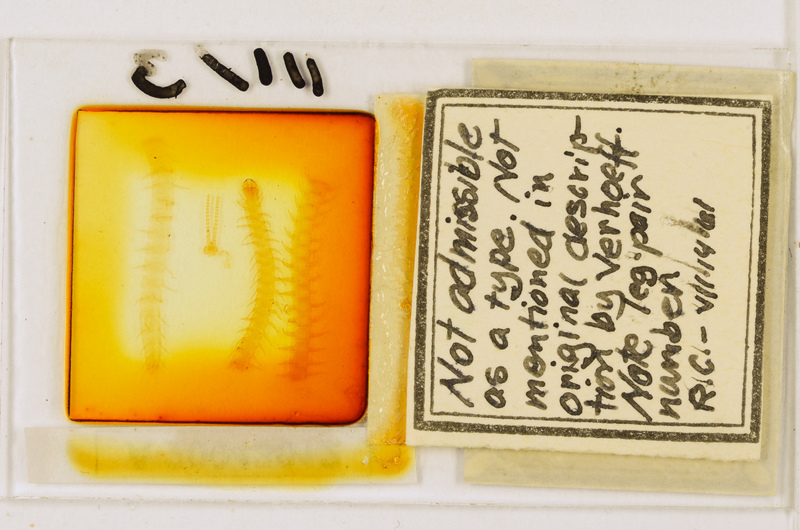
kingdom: Animalia
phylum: Arthropoda
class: Chilopoda
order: Geophilomorpha
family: Geophilidae
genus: Geoperingueyia
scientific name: Geoperingueyia armata
